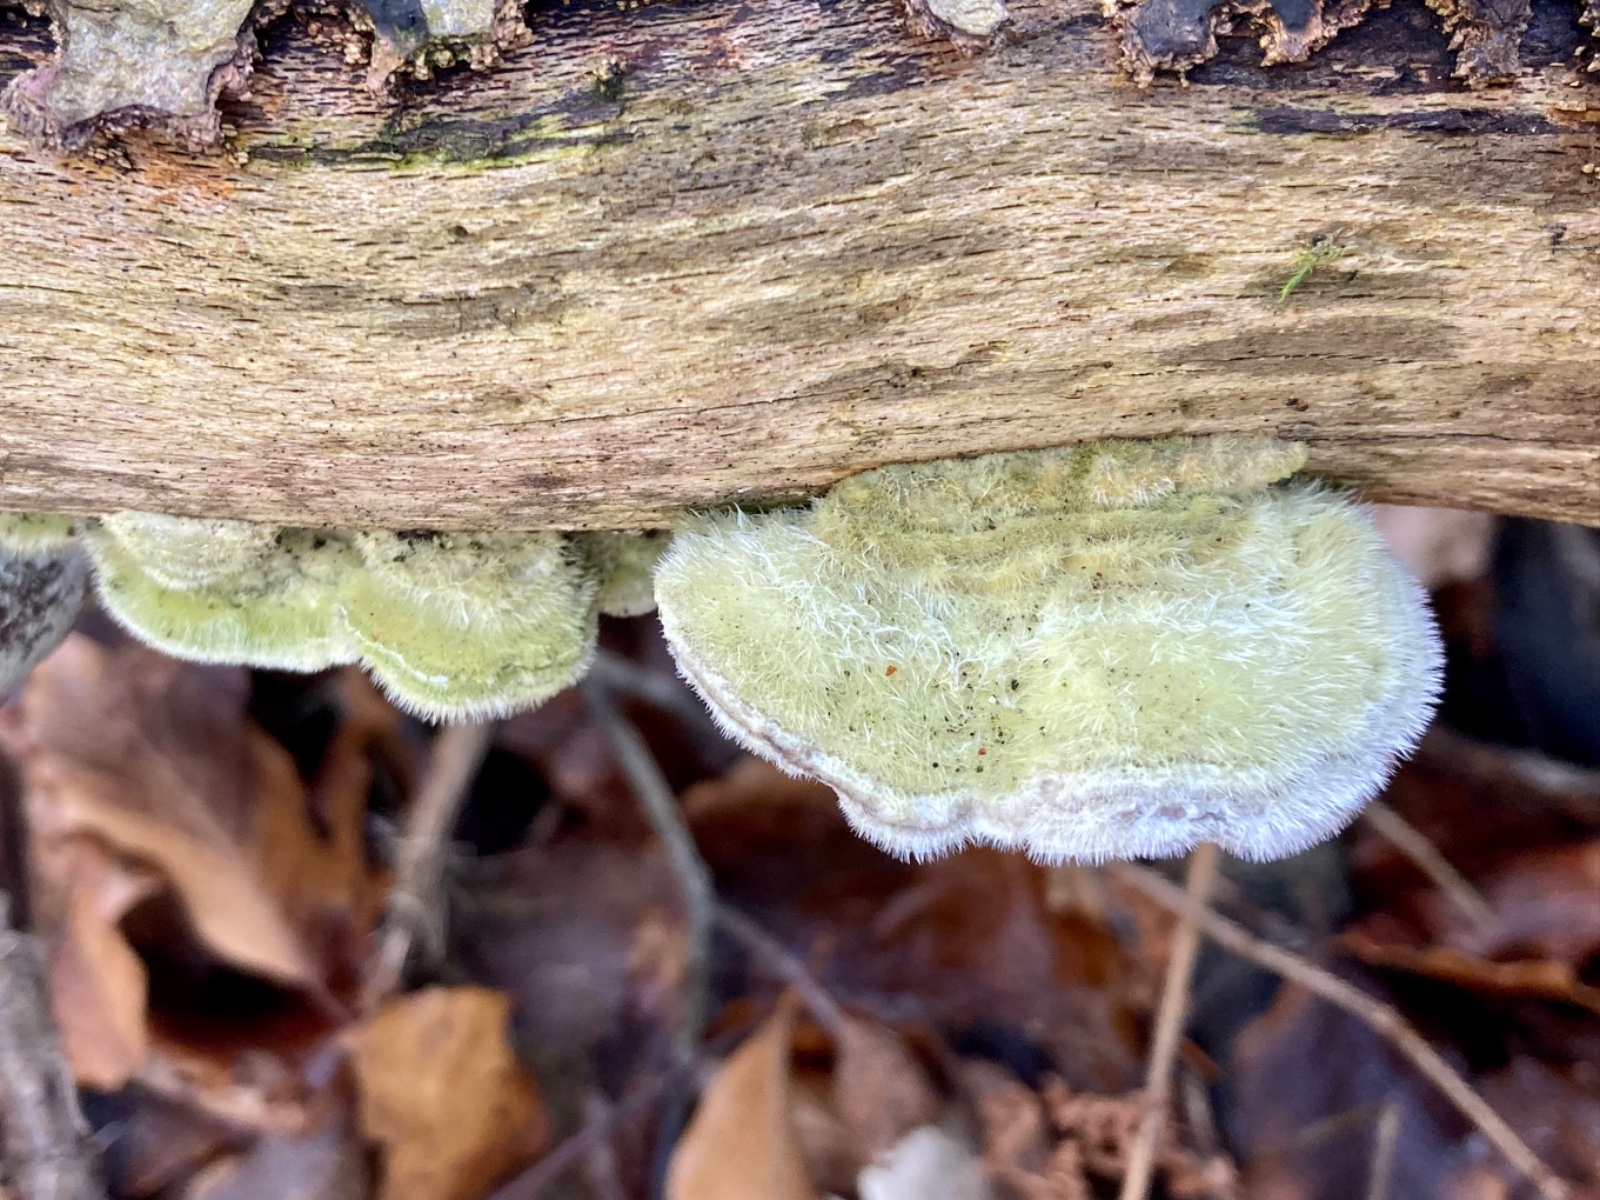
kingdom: Fungi
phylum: Basidiomycota
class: Agaricomycetes
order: Polyporales
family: Polyporaceae
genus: Trametes
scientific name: Trametes hirsuta
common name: håret læderporesvamp
